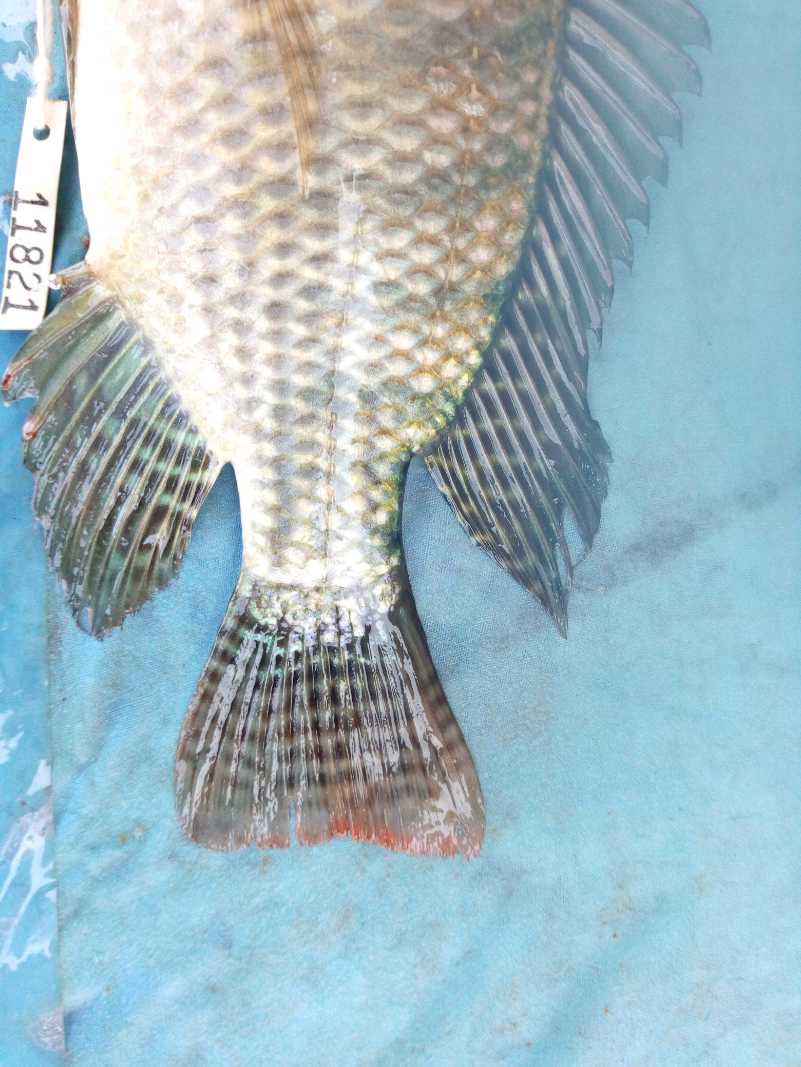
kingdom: Animalia
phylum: Chordata
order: Perciformes
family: Cichlidae
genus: Oreochromis
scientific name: Oreochromis niloticus
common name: Nile tilapia
